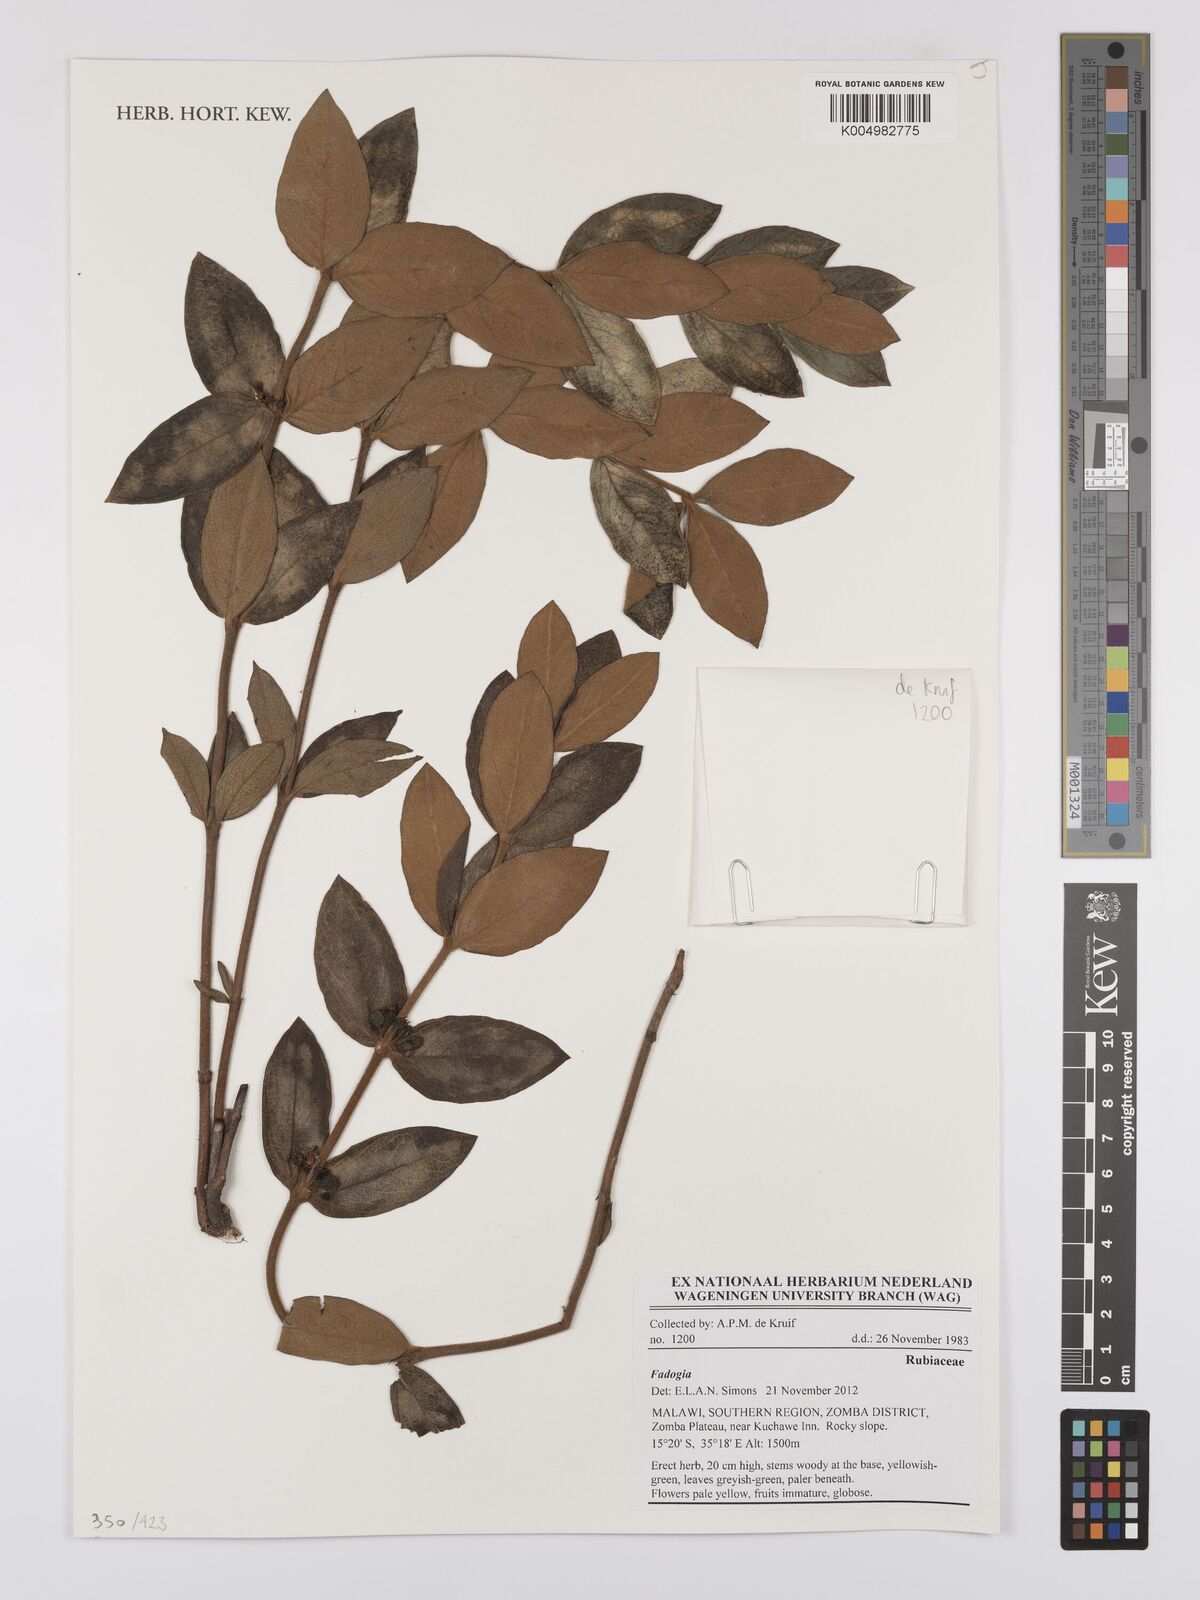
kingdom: Plantae
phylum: Tracheophyta
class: Magnoliopsida
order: Gentianales
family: Rubiaceae
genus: Fadogia
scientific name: Fadogia
